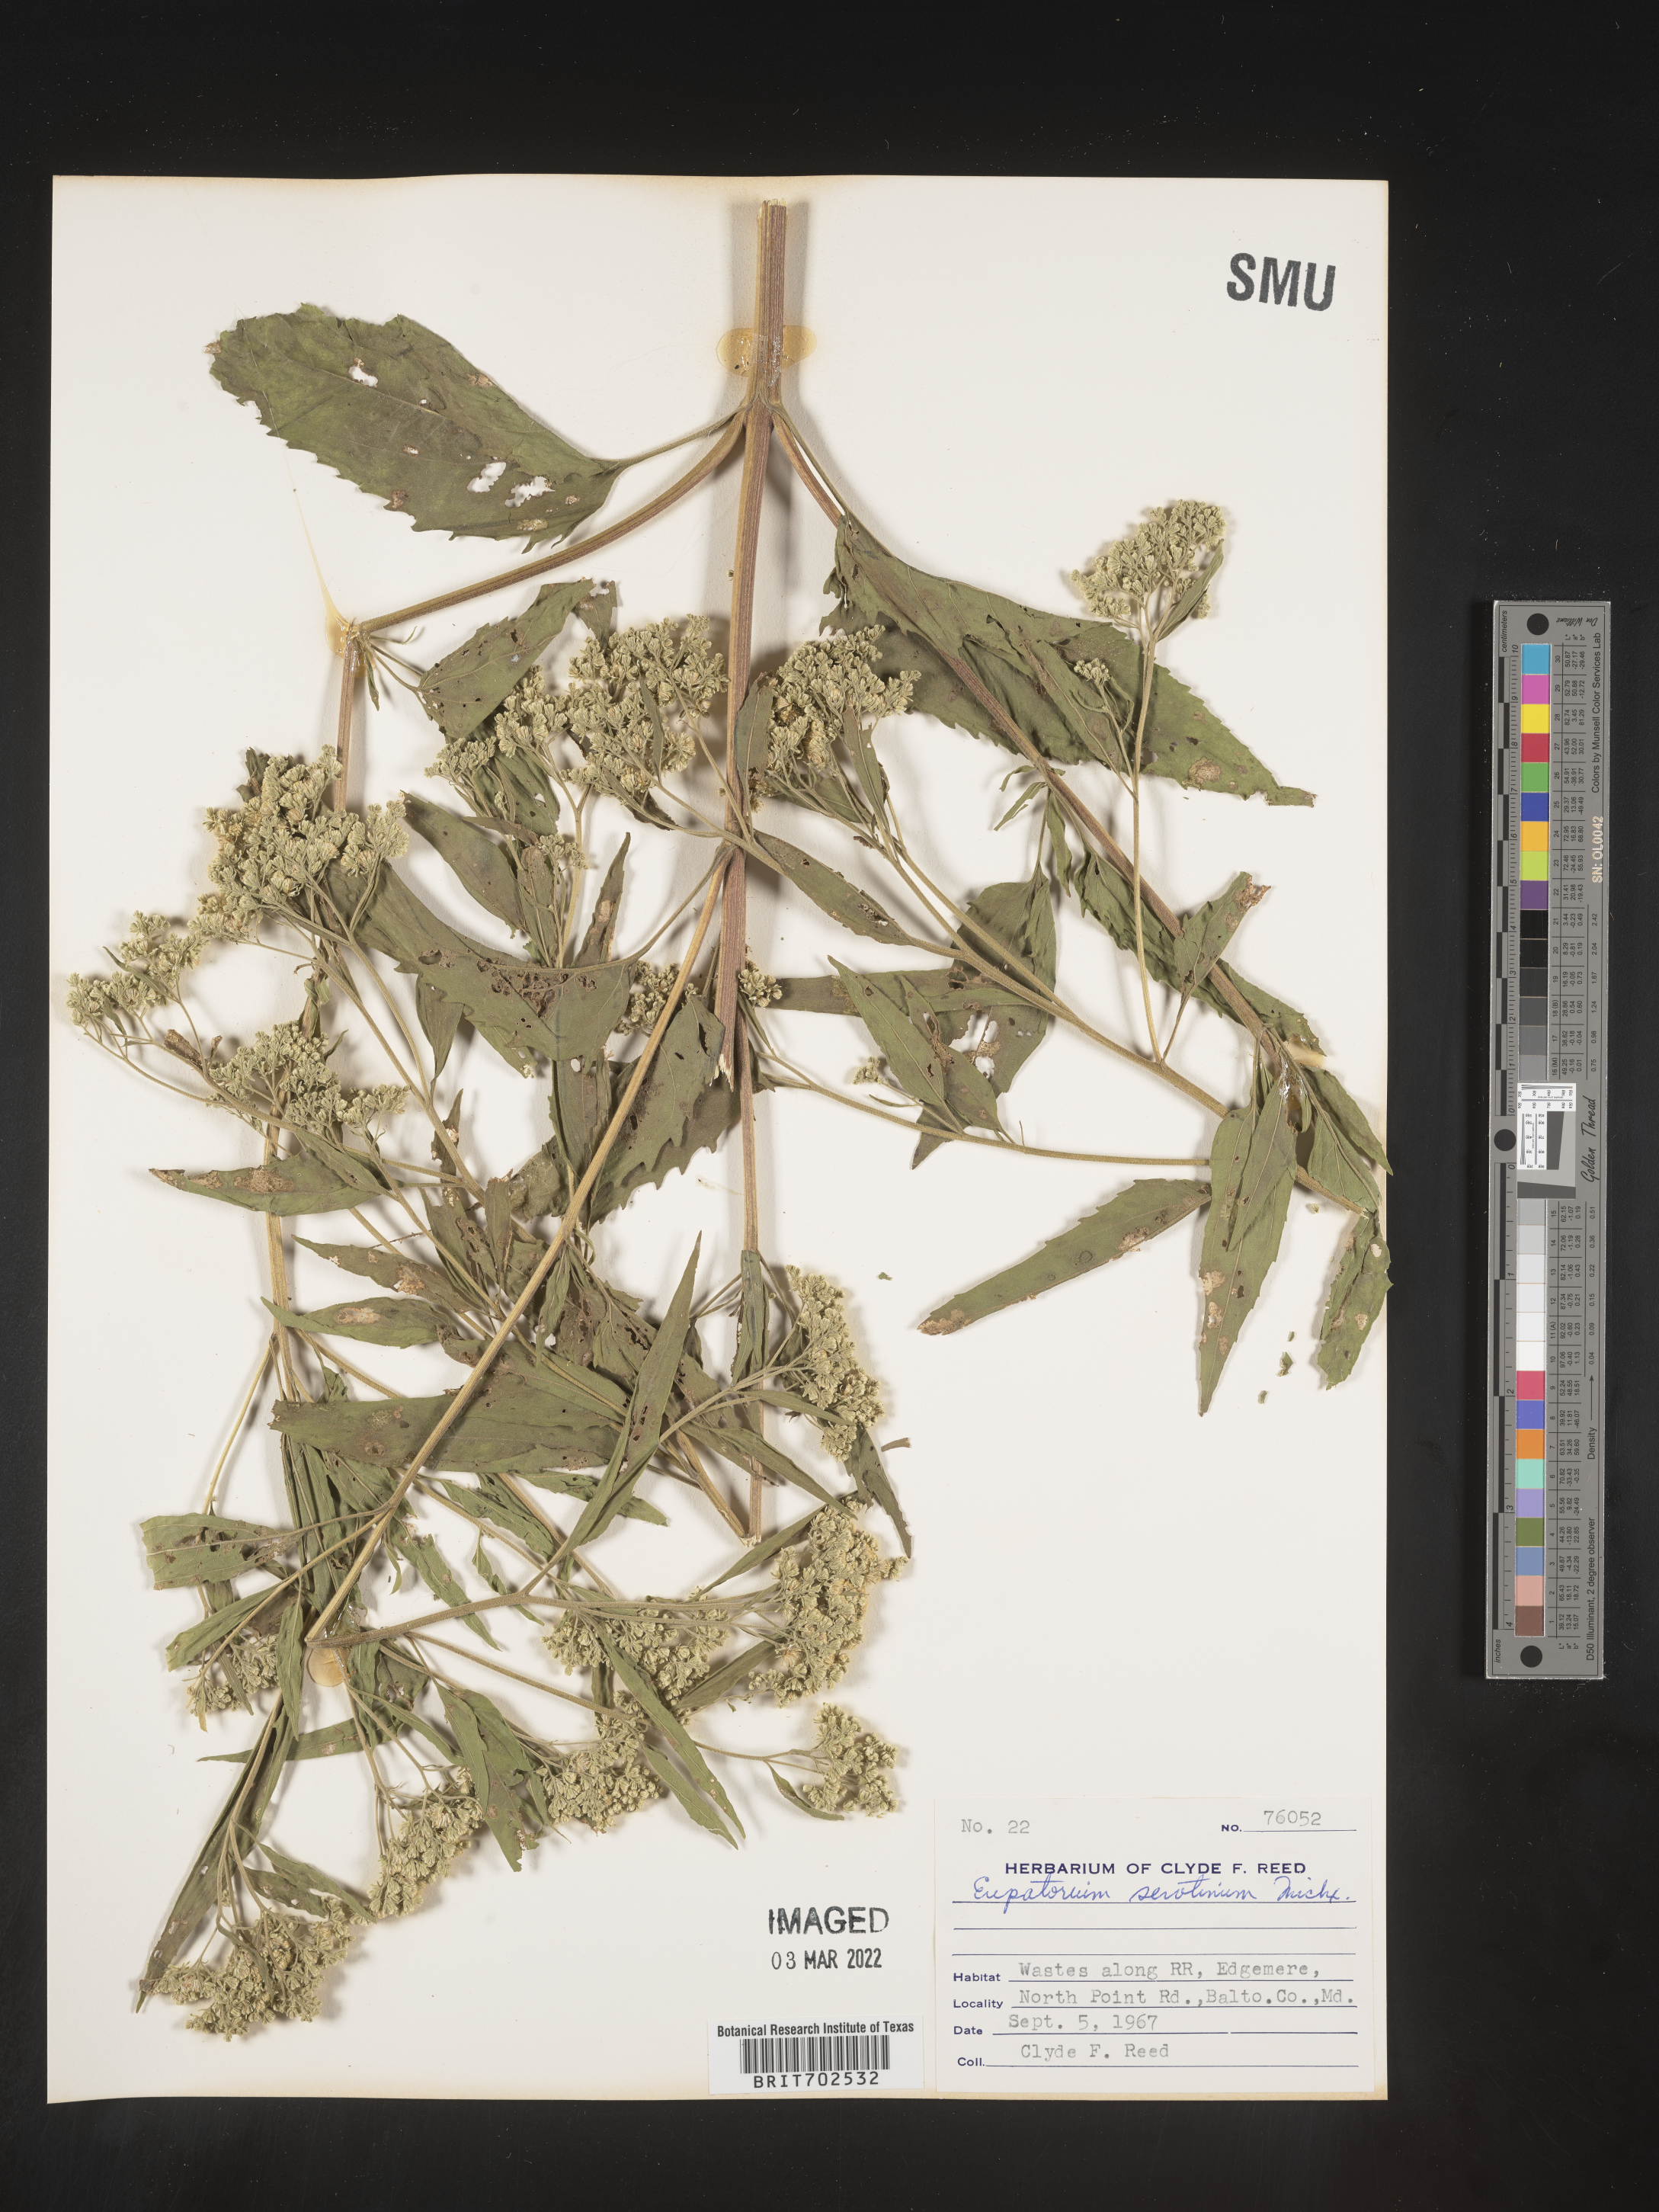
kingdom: Plantae
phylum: Tracheophyta
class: Magnoliopsida
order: Asterales
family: Asteraceae
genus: Eupatorium
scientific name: Eupatorium serotinum
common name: Late boneset
